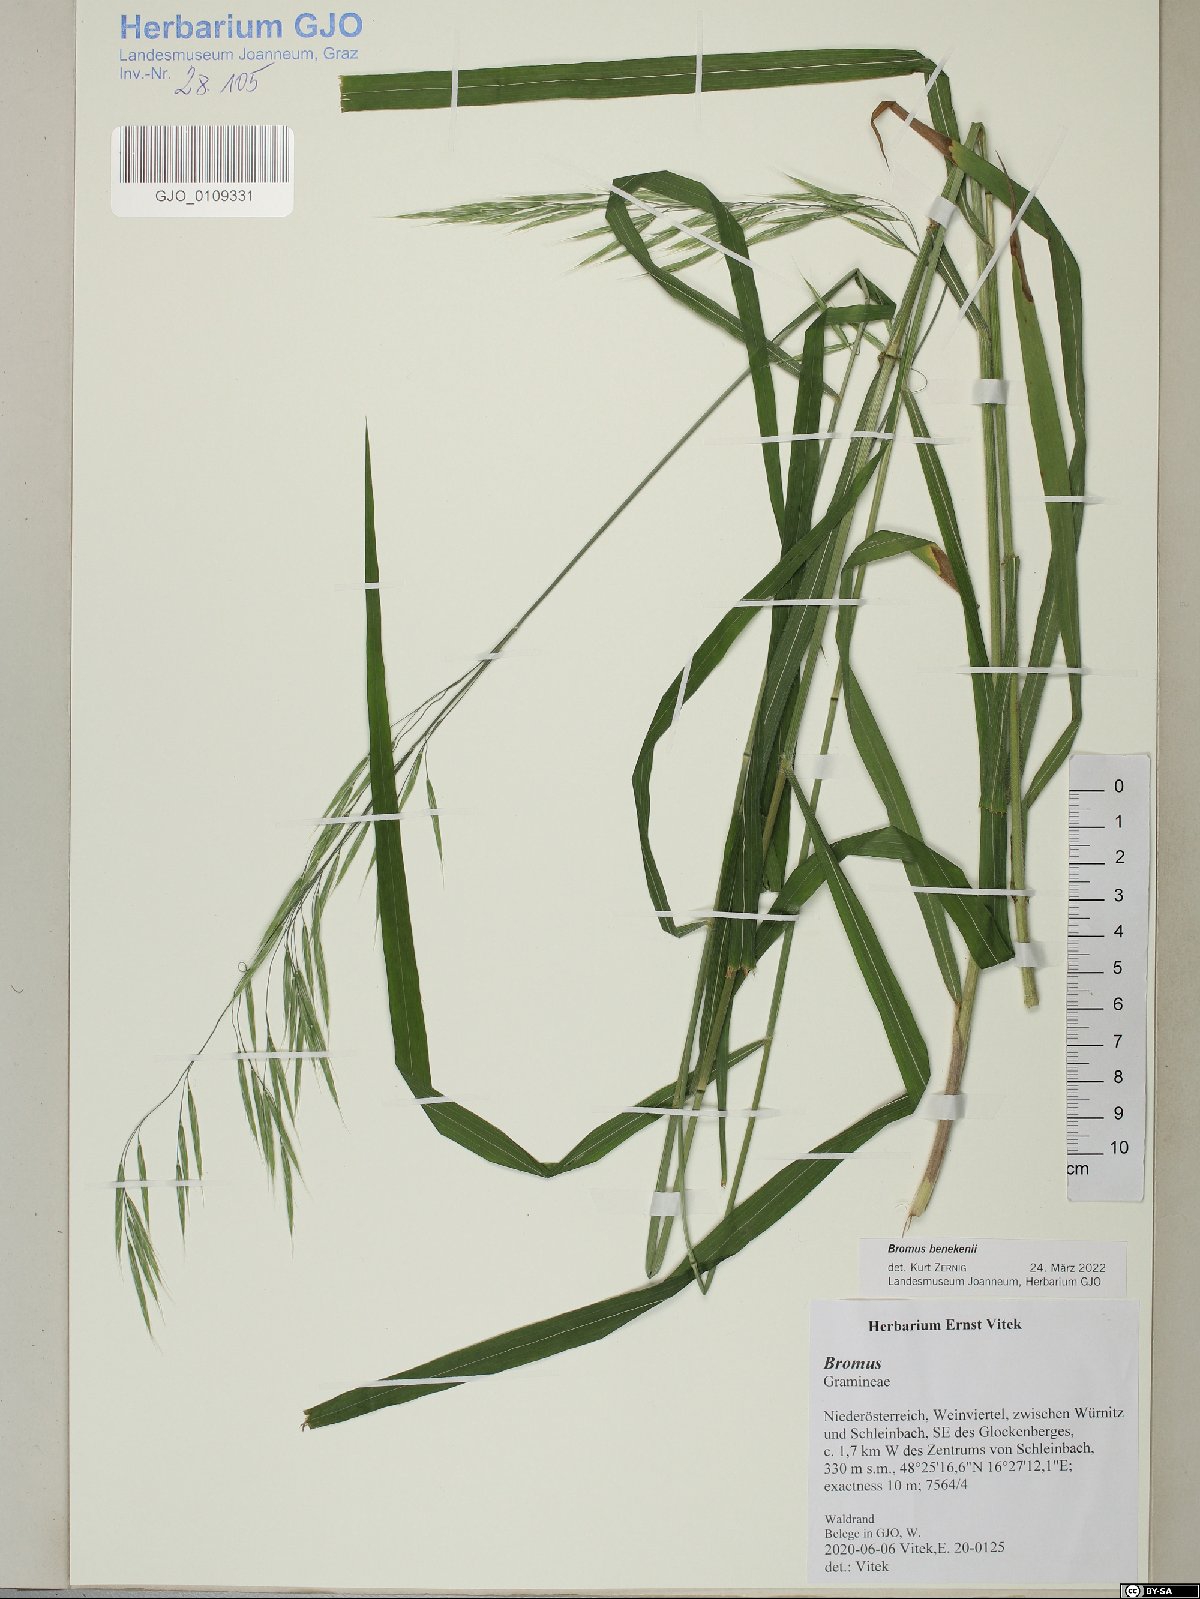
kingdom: Plantae
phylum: Tracheophyta
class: Liliopsida
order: Poales
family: Poaceae
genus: Bromus
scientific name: Bromus benekenii
